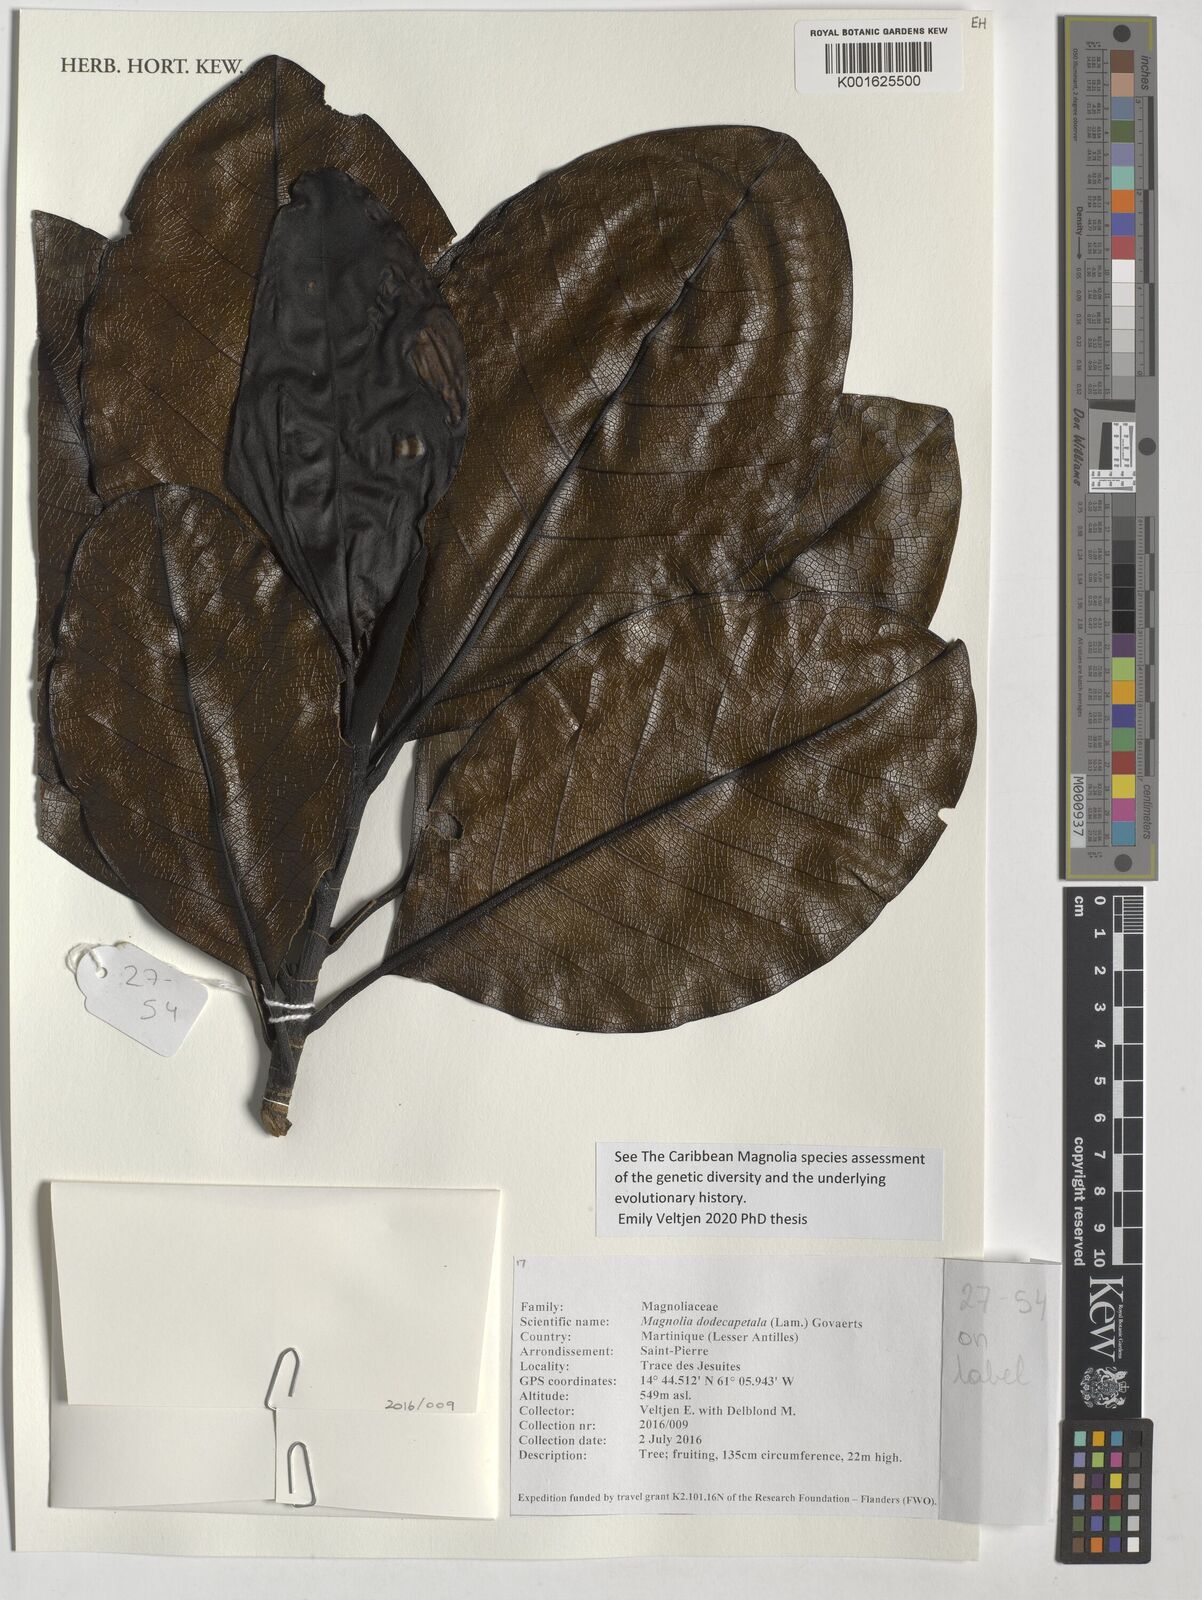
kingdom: Plantae
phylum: Tracheophyta
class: Magnoliopsida
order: Magnoliales
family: Magnoliaceae
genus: Magnolia
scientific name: Magnolia dodecapetala
